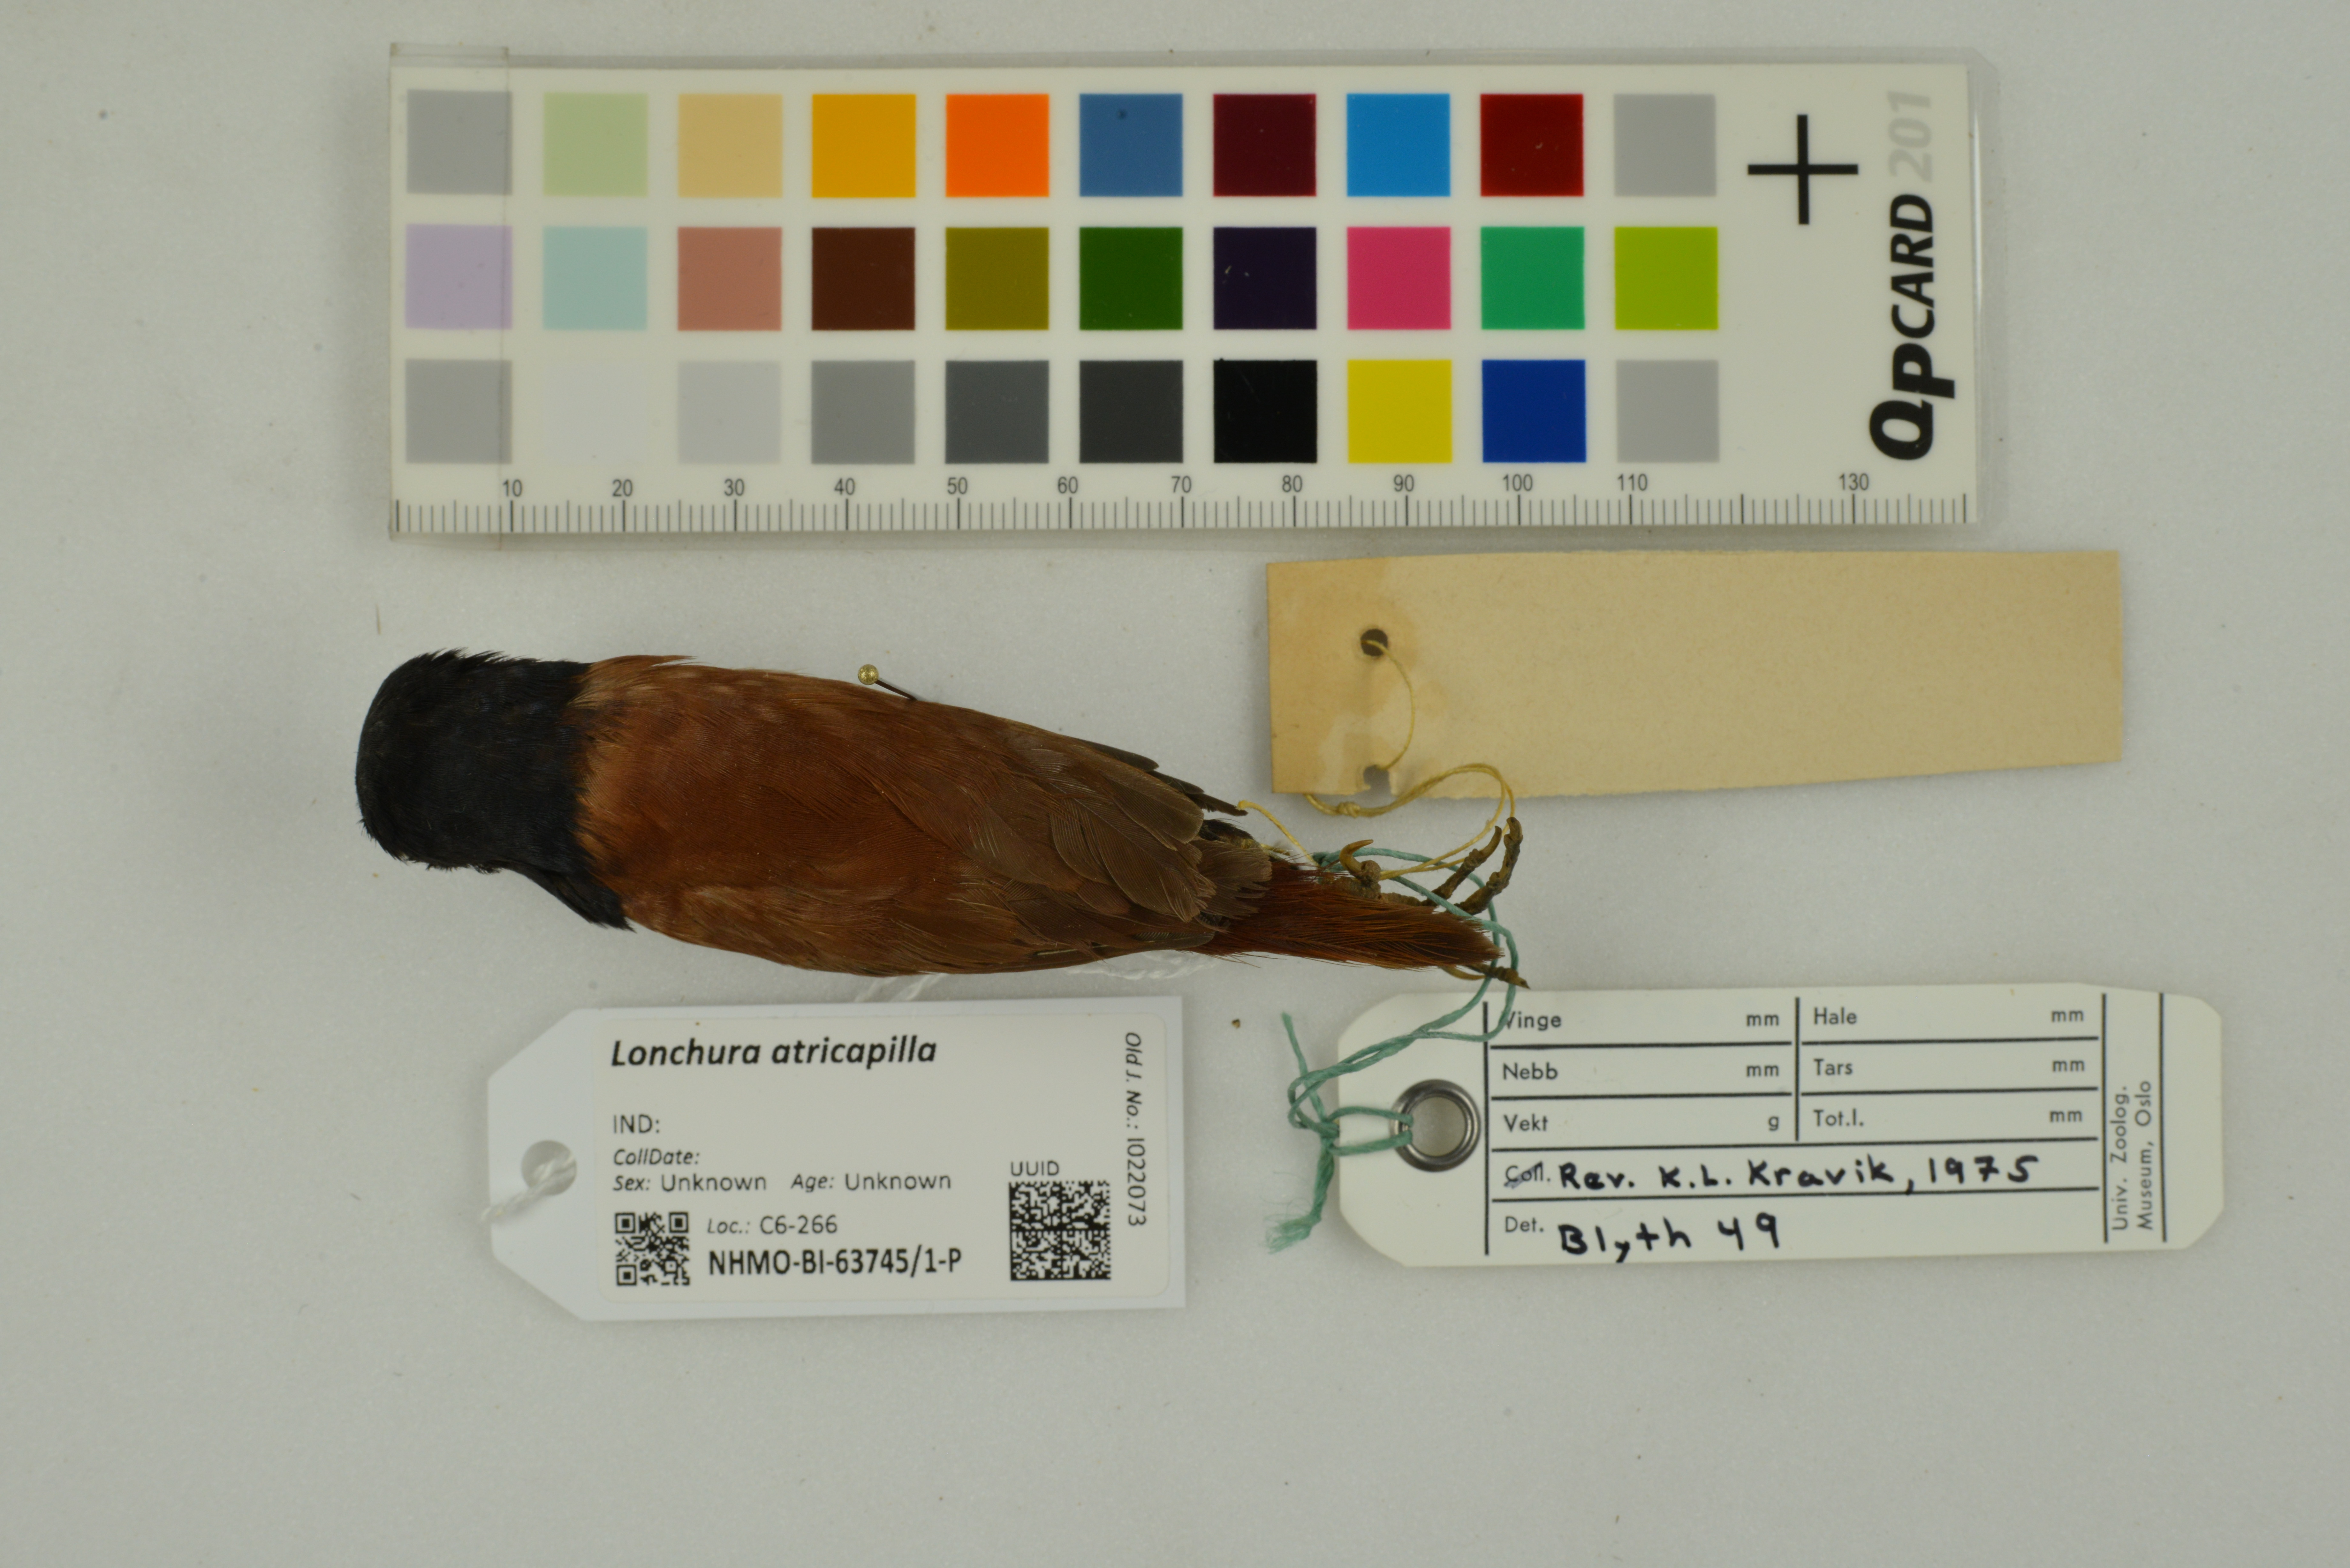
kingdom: Animalia
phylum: Chordata
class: Aves
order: Passeriformes
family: Estrildidae
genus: Lonchura
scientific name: Lonchura atricapilla
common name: Chestnut munia
